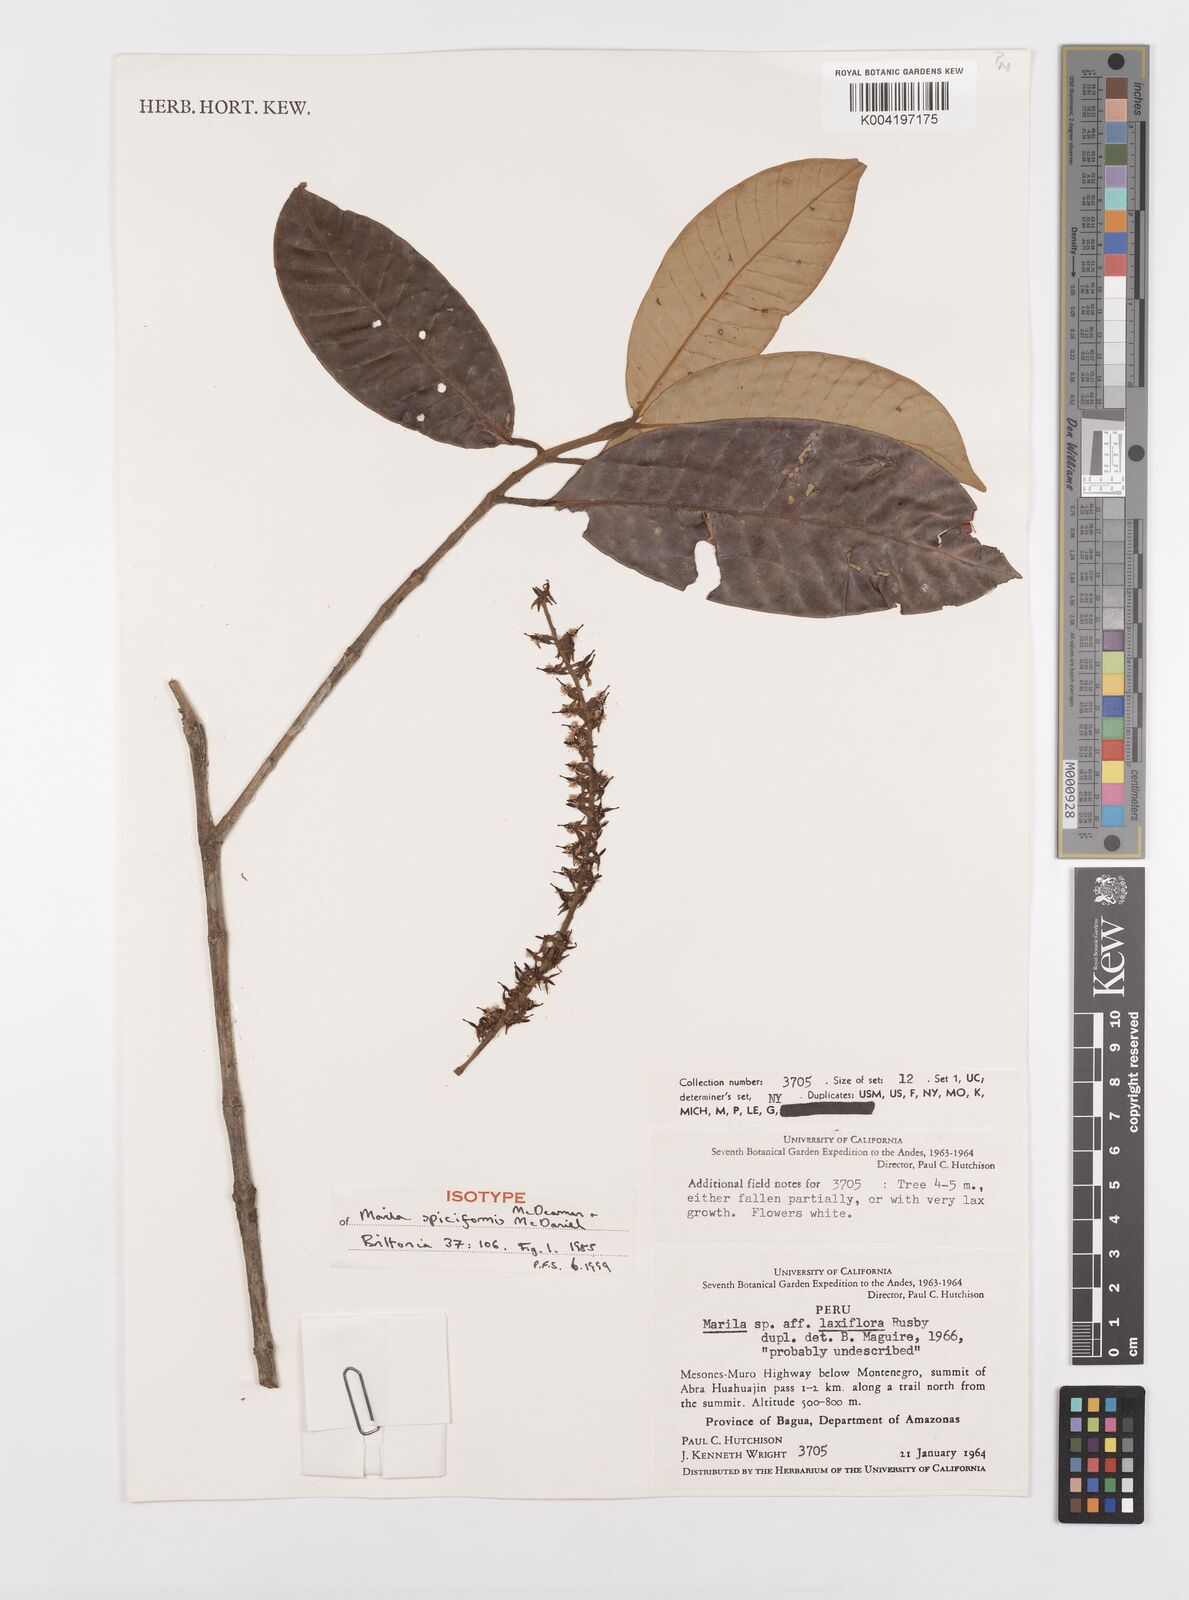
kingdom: Plantae
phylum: Tracheophyta
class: Magnoliopsida
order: Malpighiales
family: Calophyllaceae
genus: Marila
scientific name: Marila spiciformis
